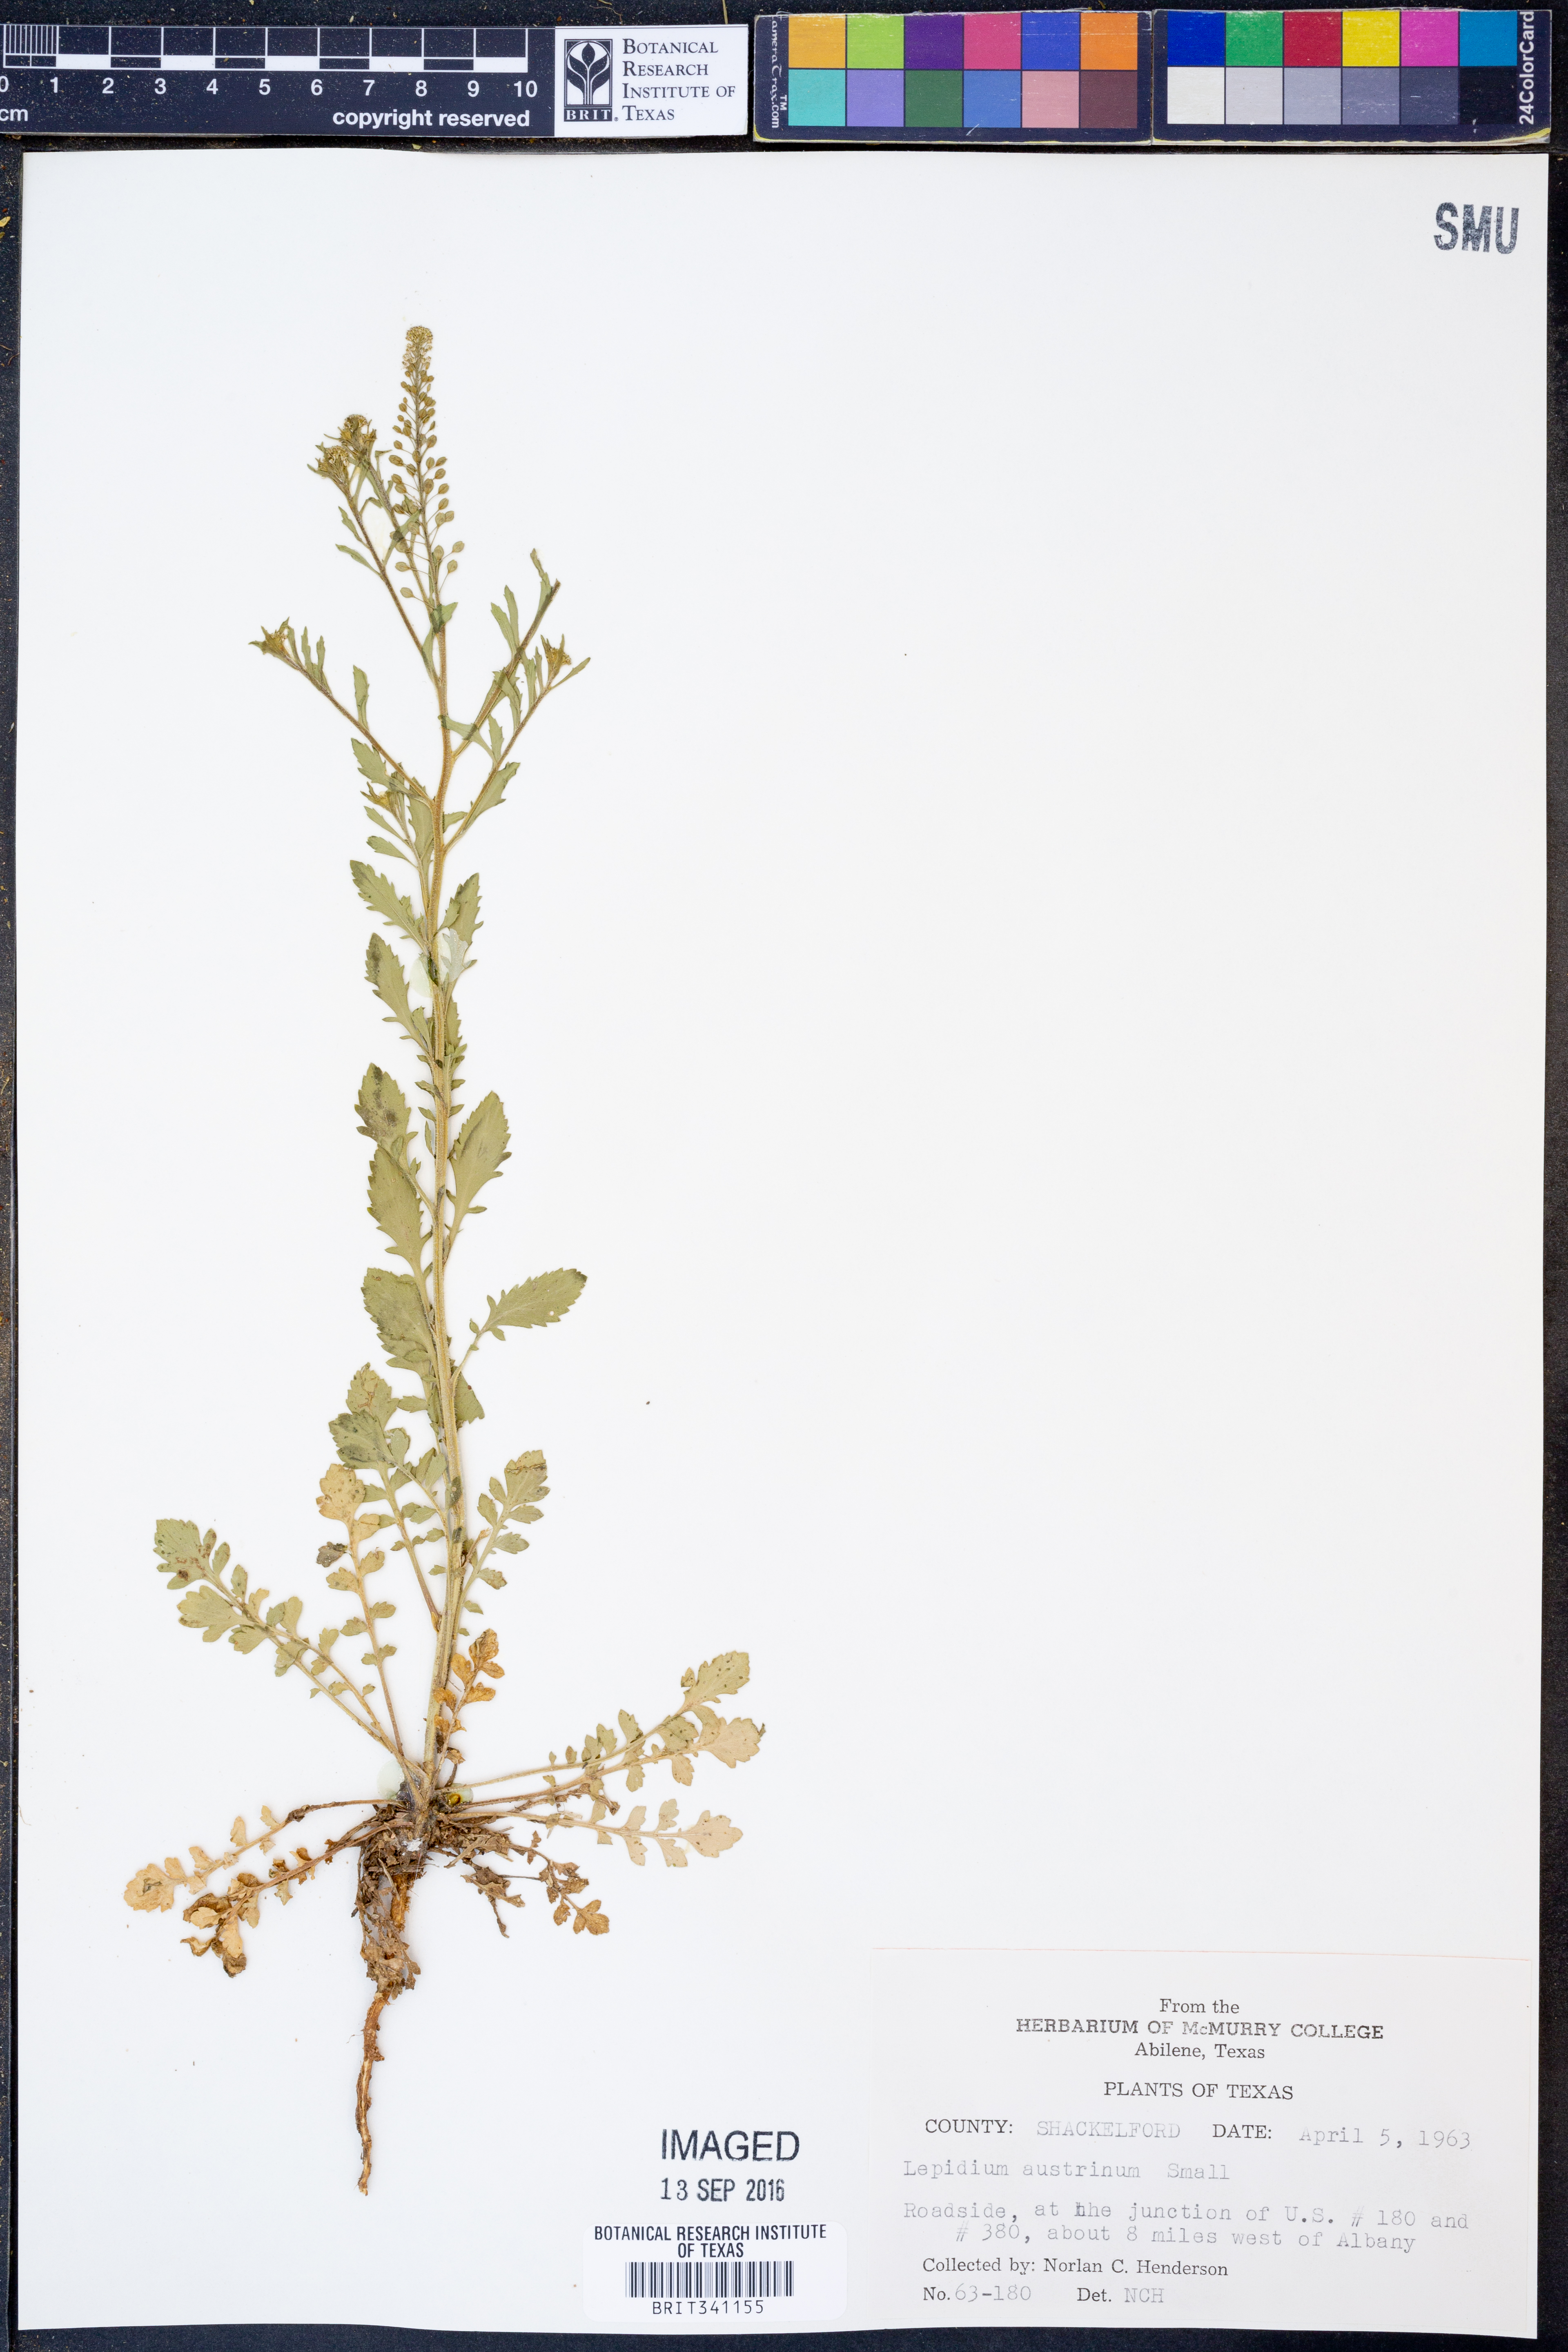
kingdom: Plantae
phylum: Tracheophyta
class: Magnoliopsida
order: Brassicales
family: Brassicaceae
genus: Lepidium
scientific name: Lepidium austrinum
